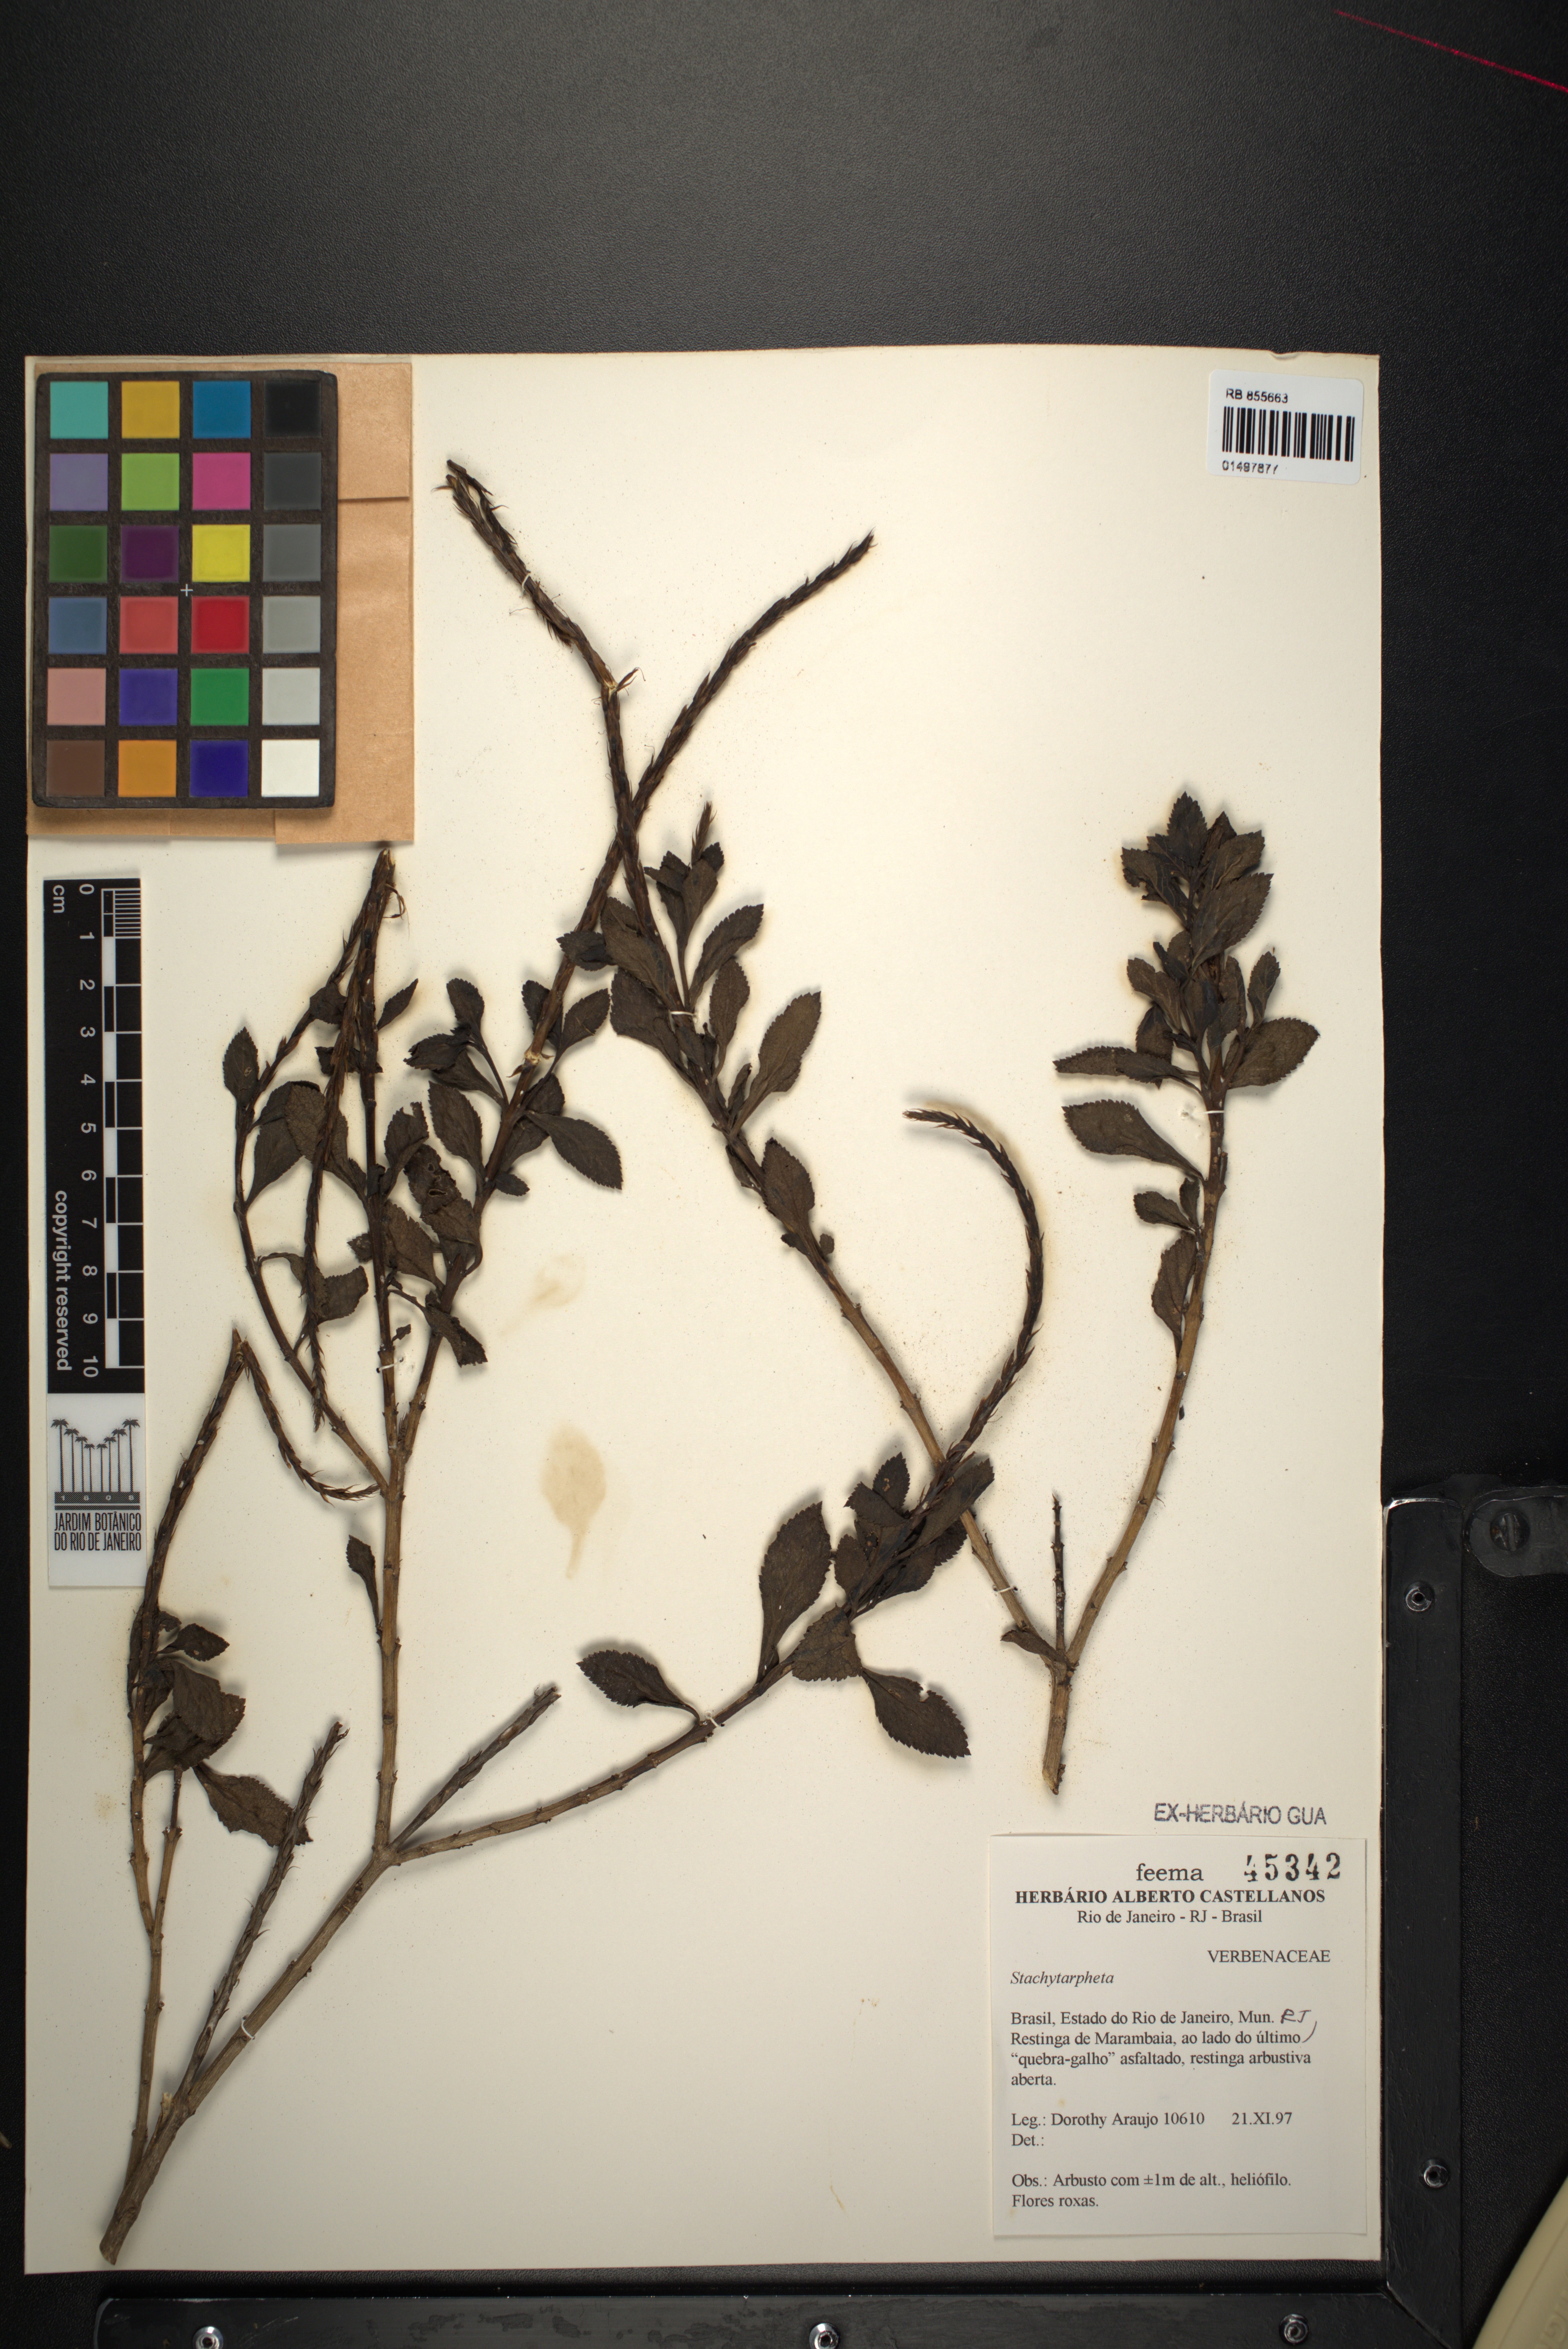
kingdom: Plantae
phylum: Tracheophyta
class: Magnoliopsida
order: Lamiales
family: Verbenaceae
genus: Stachytarpheta
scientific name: Stachytarpheta
